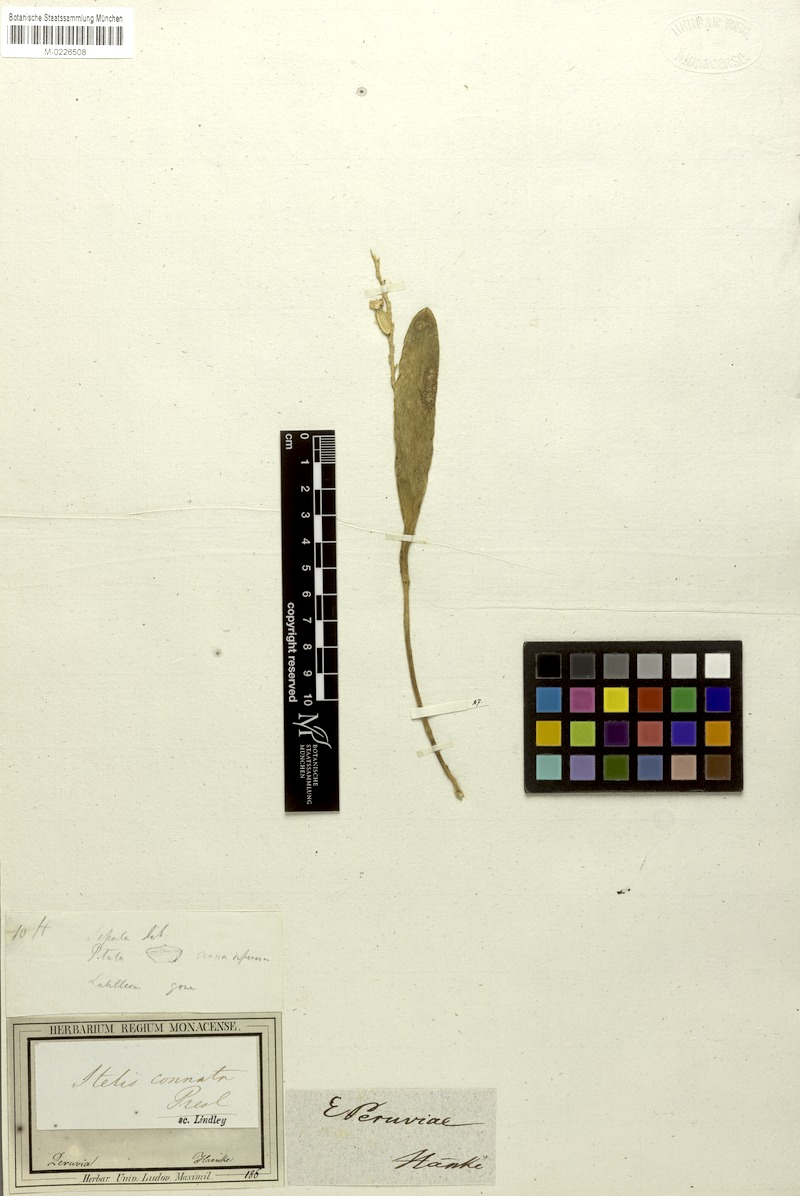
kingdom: Plantae
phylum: Tracheophyta
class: Liliopsida
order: Asparagales
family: Orchidaceae
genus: Stelis
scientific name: Stelis purpurea
